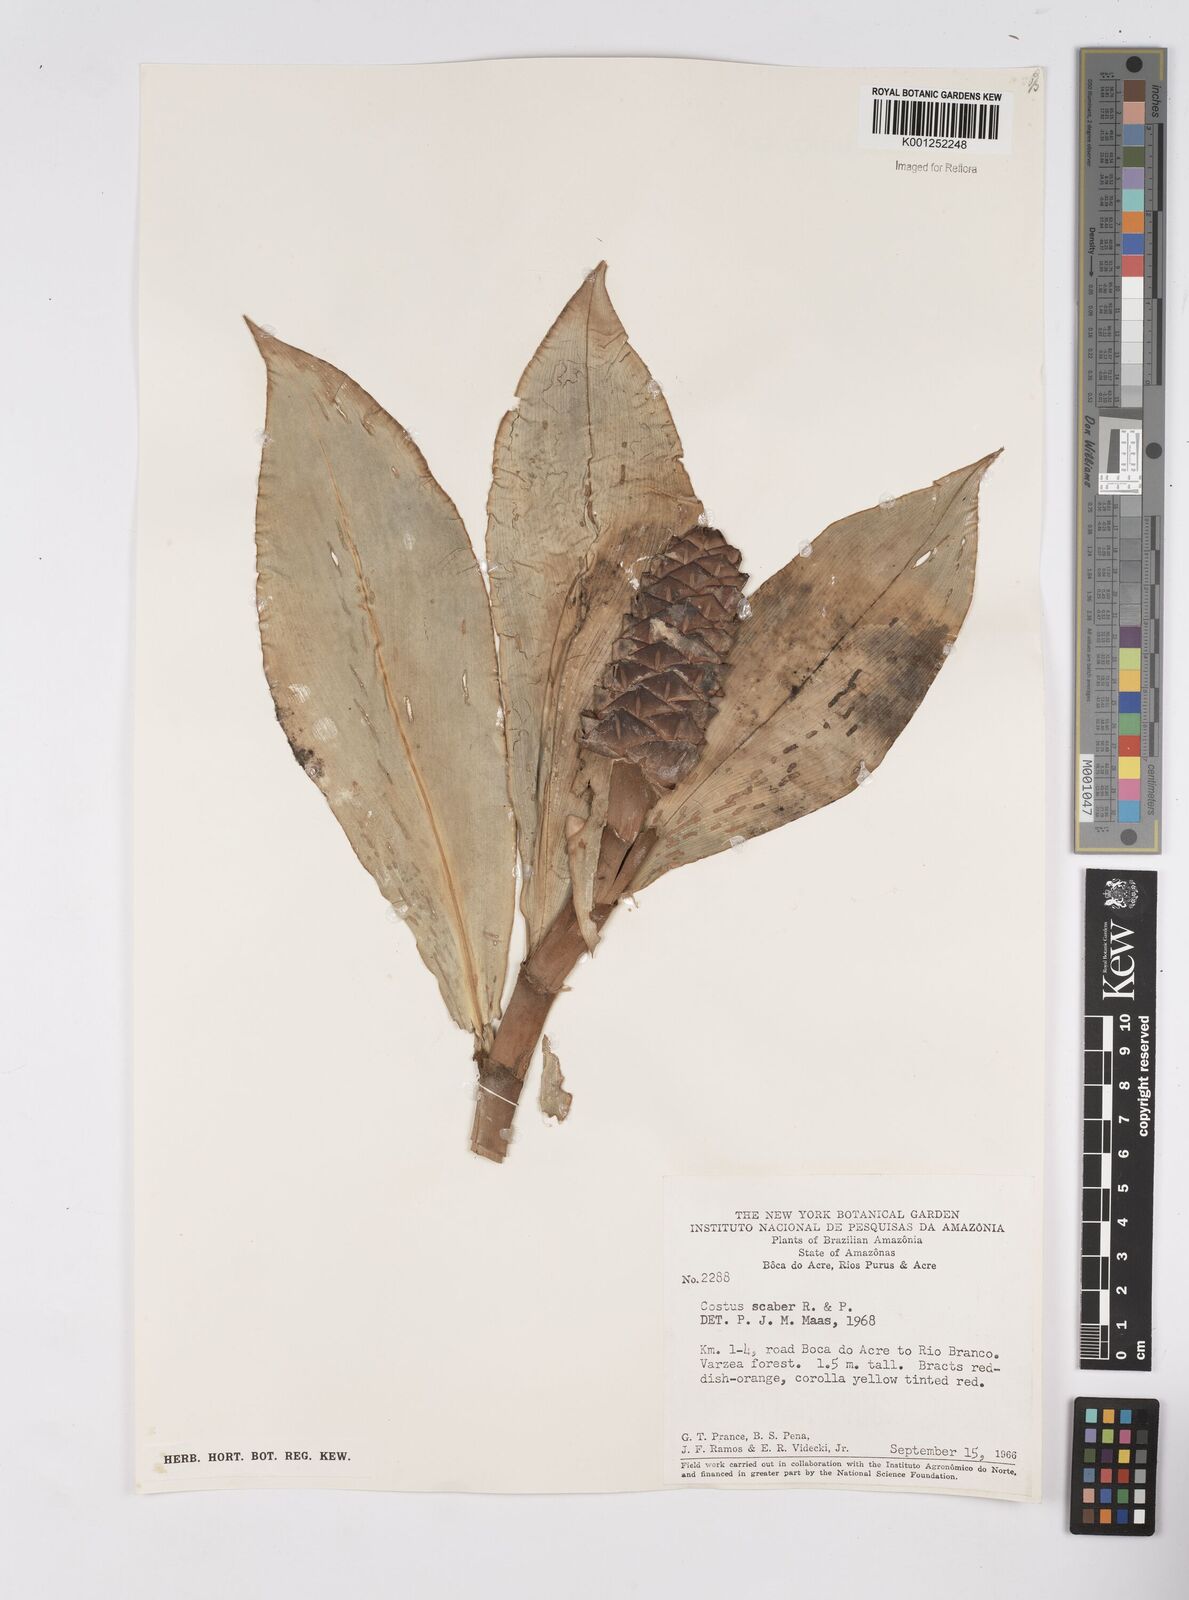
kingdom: Plantae
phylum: Tracheophyta
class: Liliopsida
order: Zingiberales
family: Costaceae
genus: Costus
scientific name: Costus scaber
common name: Spiral head ginger
